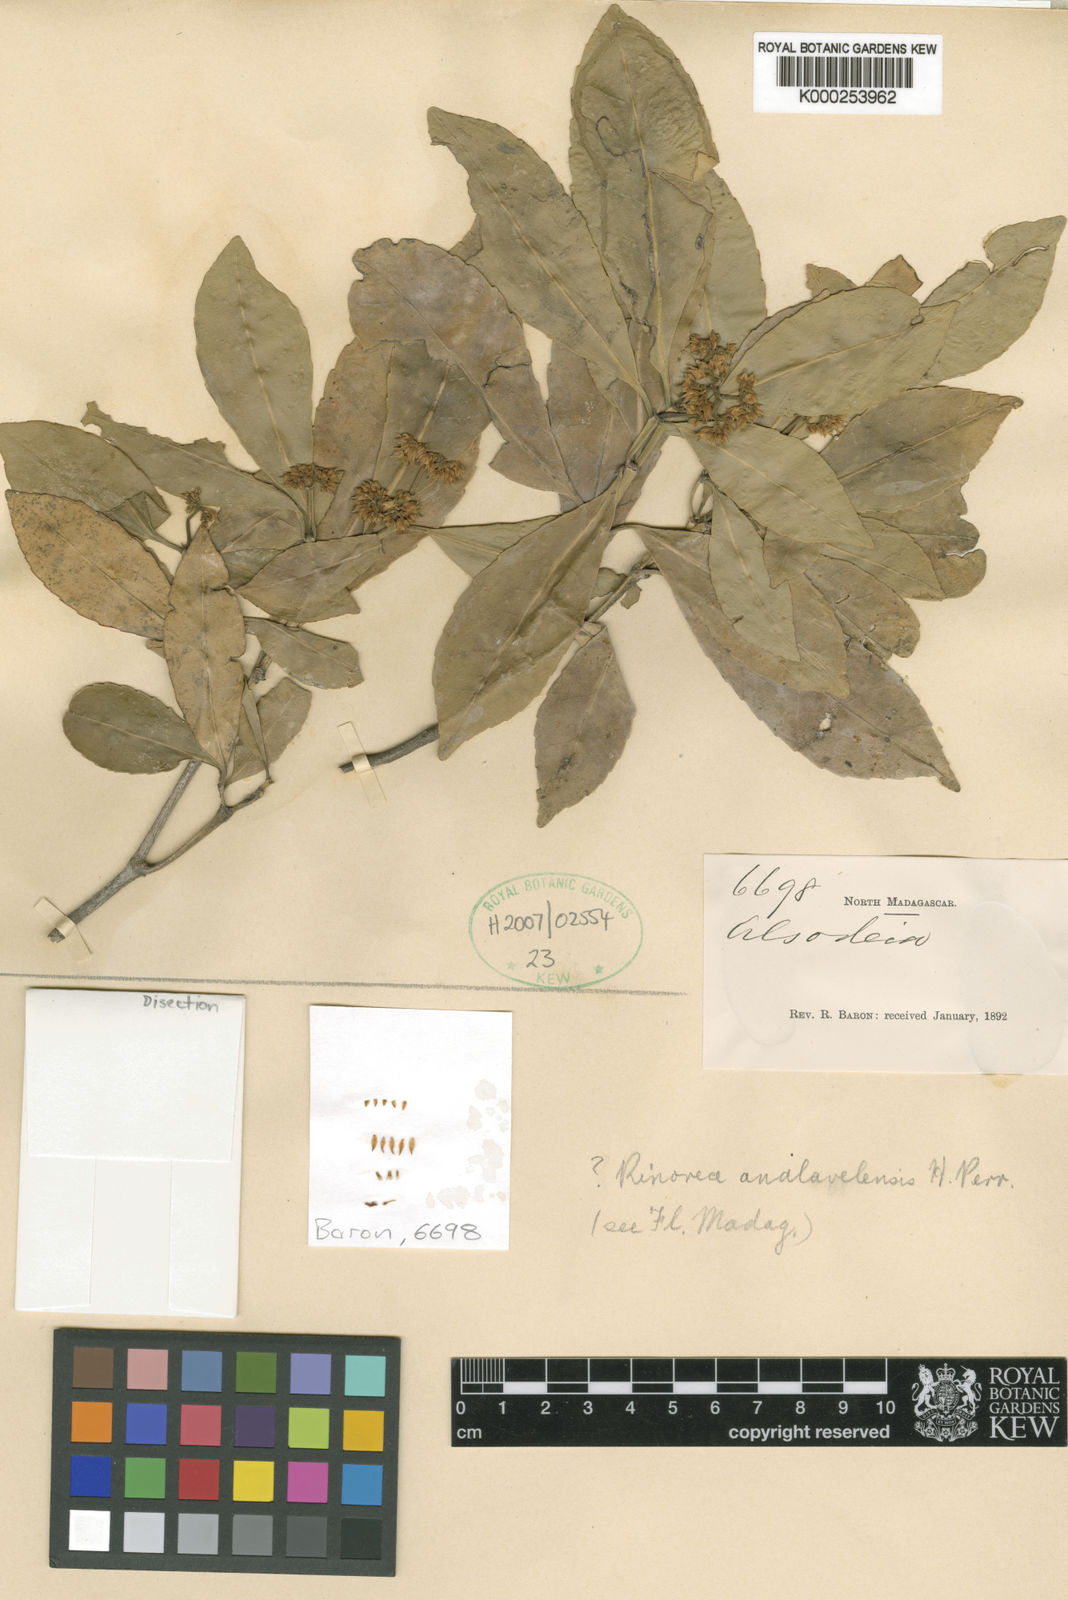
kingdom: Plantae
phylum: Tracheophyta
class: Magnoliopsida
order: Solanales
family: Solanaceae
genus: Alsodeia
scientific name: Alsodeia
